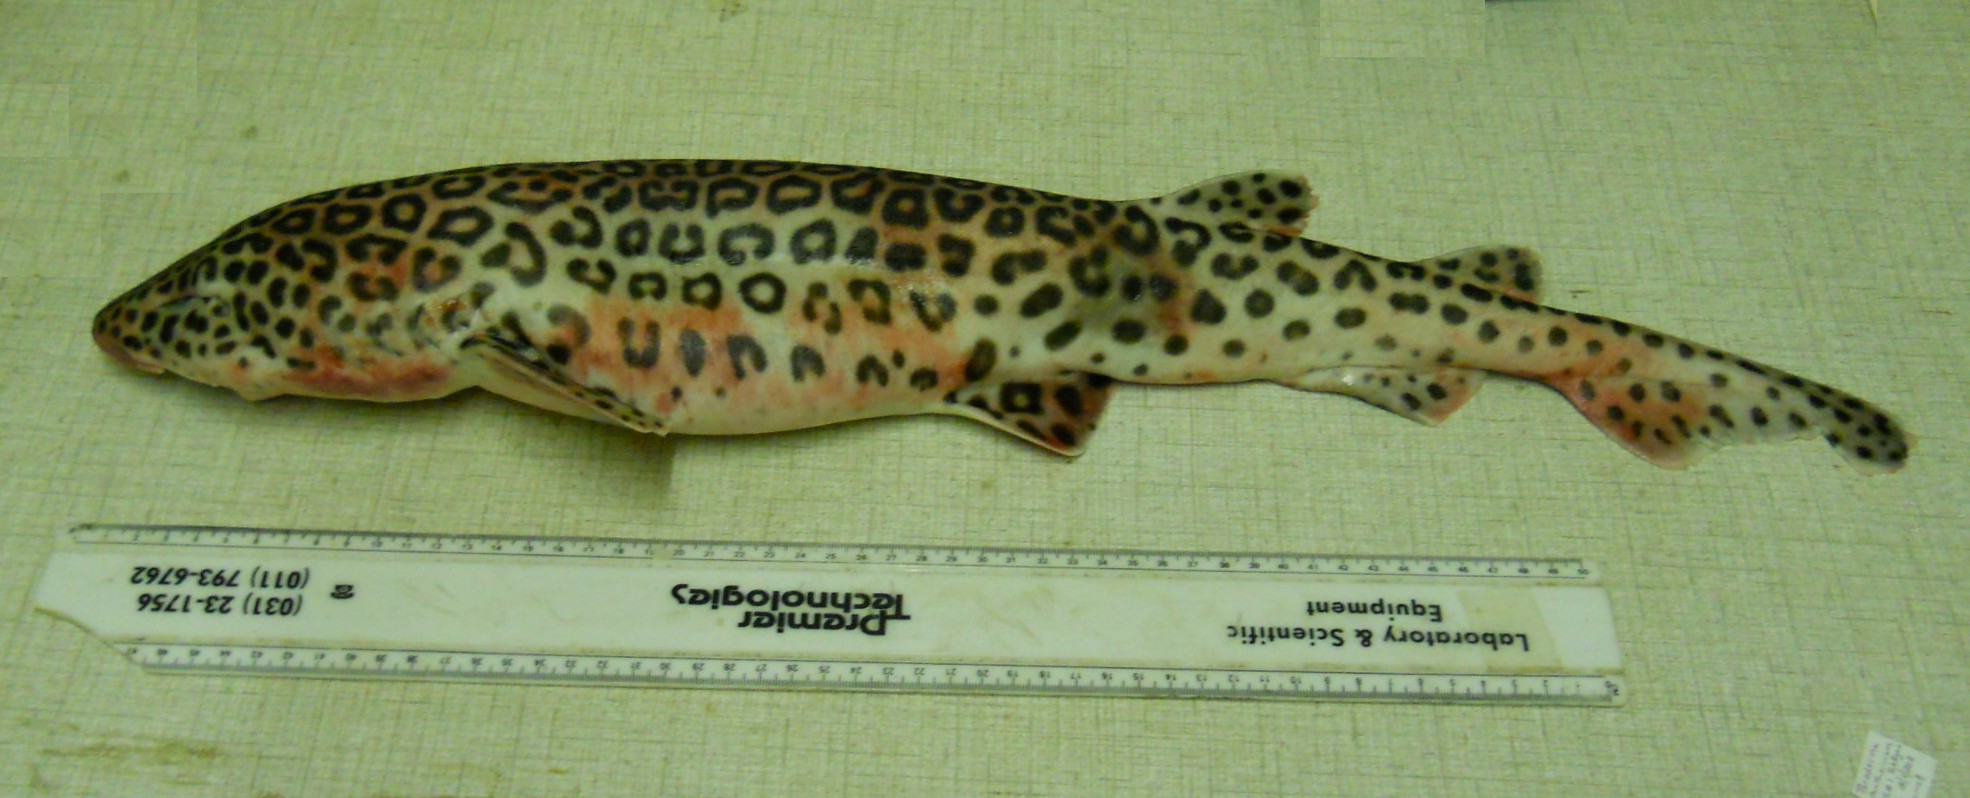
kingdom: Animalia
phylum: Chordata
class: Elasmobranchii
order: Carcharhiniformes
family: Scyliorhinidae
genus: Poroderma
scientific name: Poroderma pantherinum
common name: Leopard catshark
